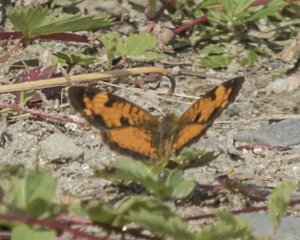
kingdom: Animalia
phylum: Arthropoda
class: Insecta
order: Lepidoptera
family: Nymphalidae
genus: Phyciodes
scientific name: Phyciodes tharos
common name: Northern Crescent
